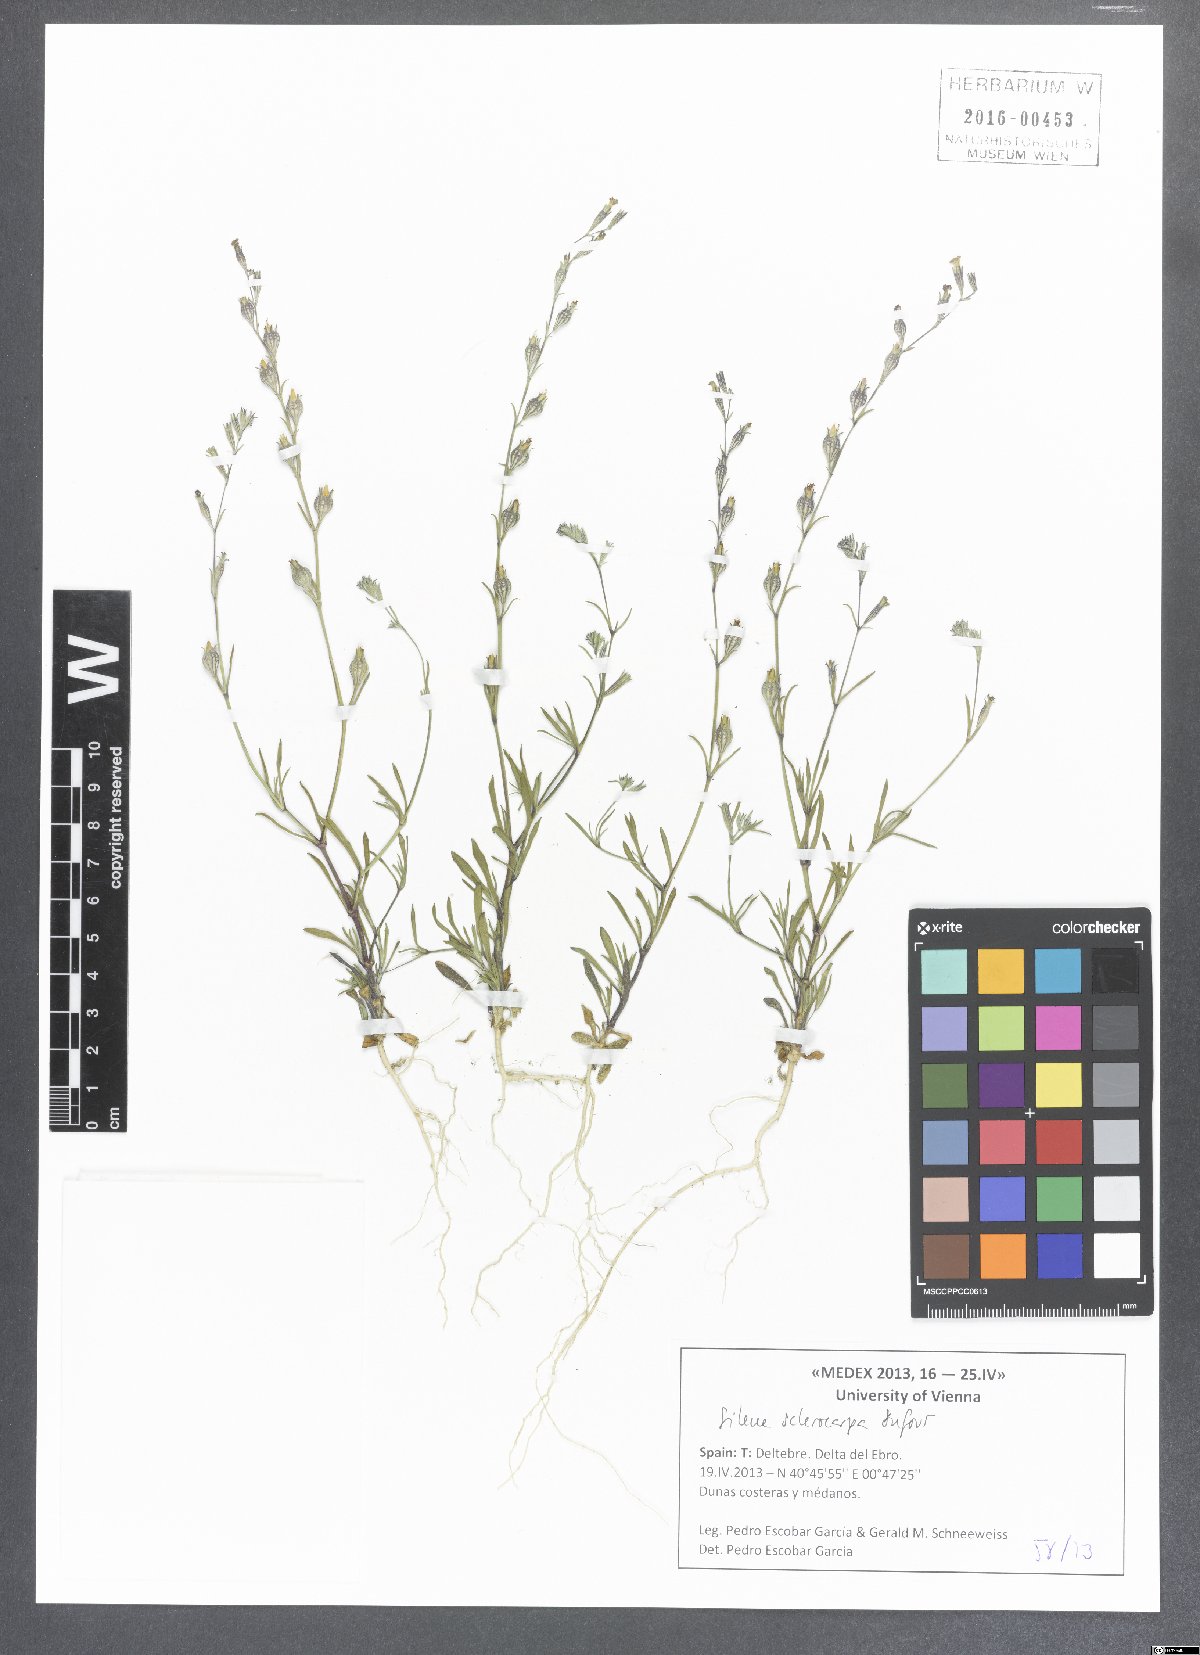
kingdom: Plantae
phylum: Tracheophyta
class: Magnoliopsida
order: Caryophyllales
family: Caryophyllaceae
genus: Silene
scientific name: Silene sclerocarpa
